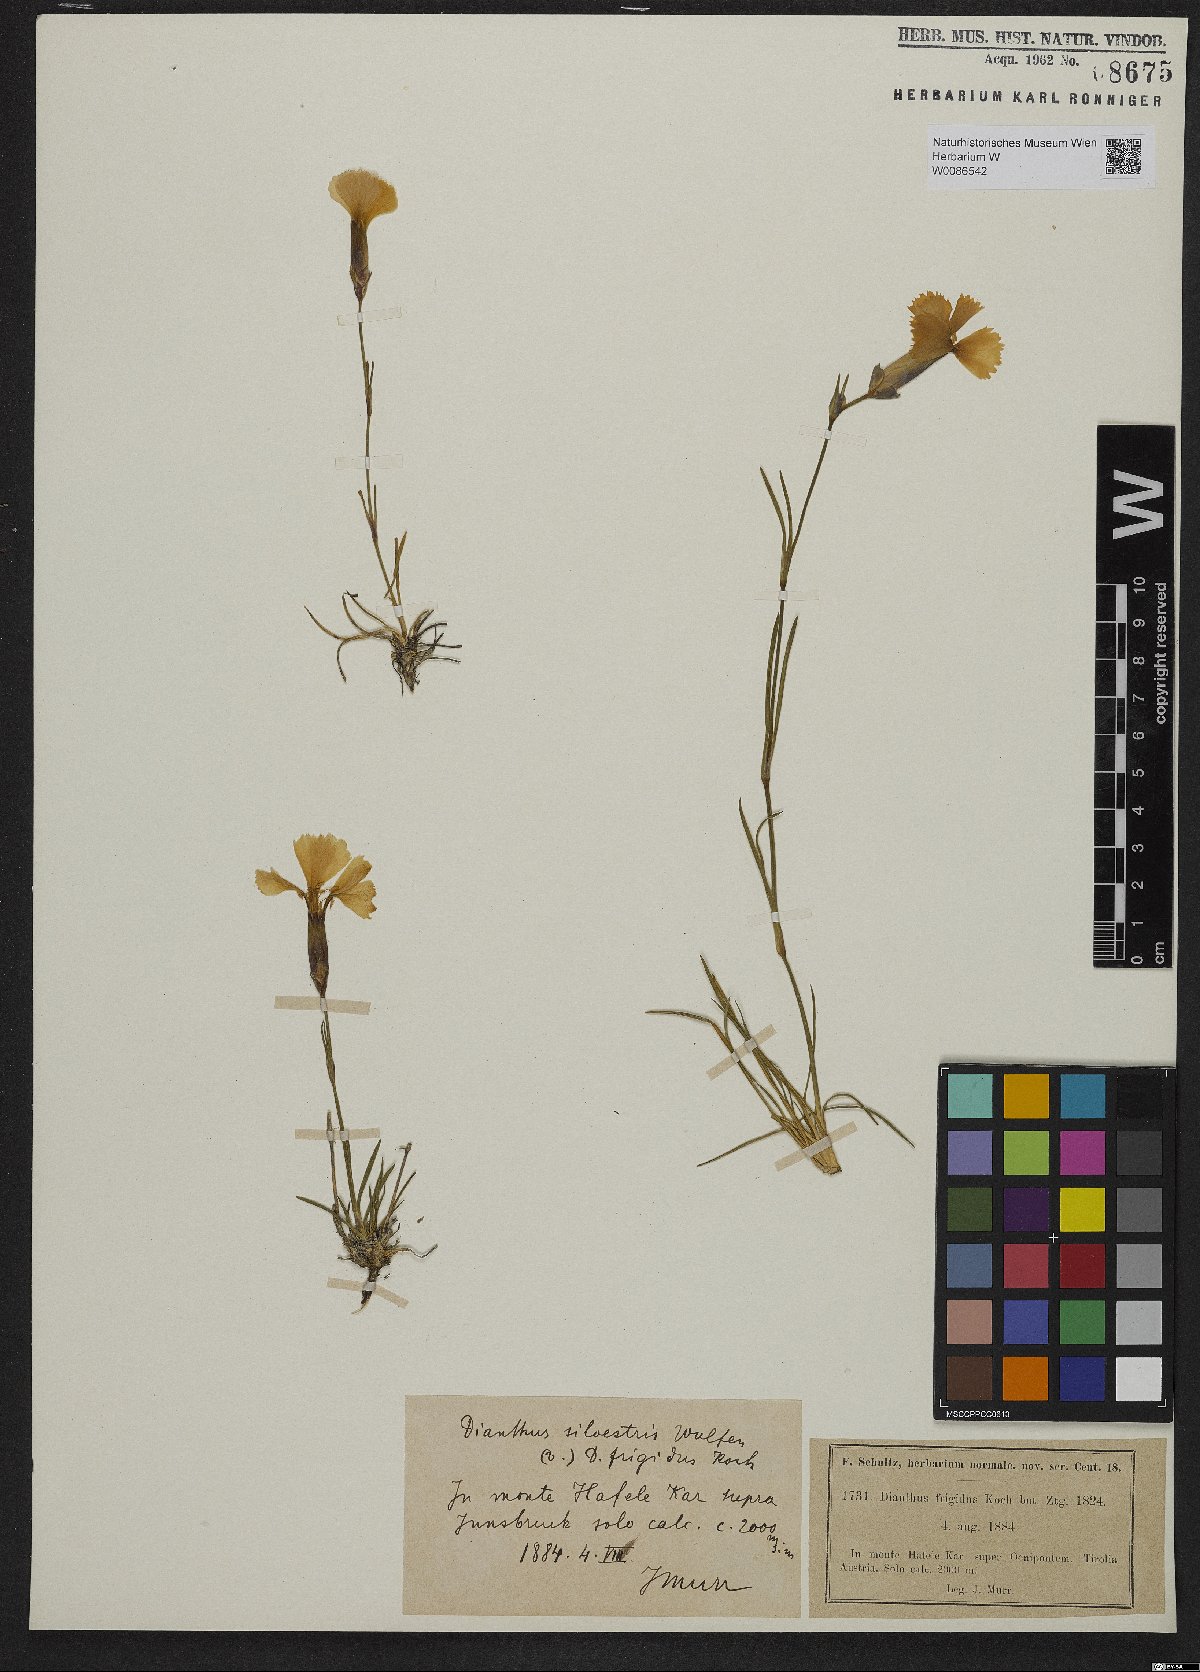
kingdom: Plantae
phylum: Tracheophyta
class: Magnoliopsida
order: Caryophyllales
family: Caryophyllaceae
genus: Dianthus
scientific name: Dianthus sylvestris
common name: Wood pink
